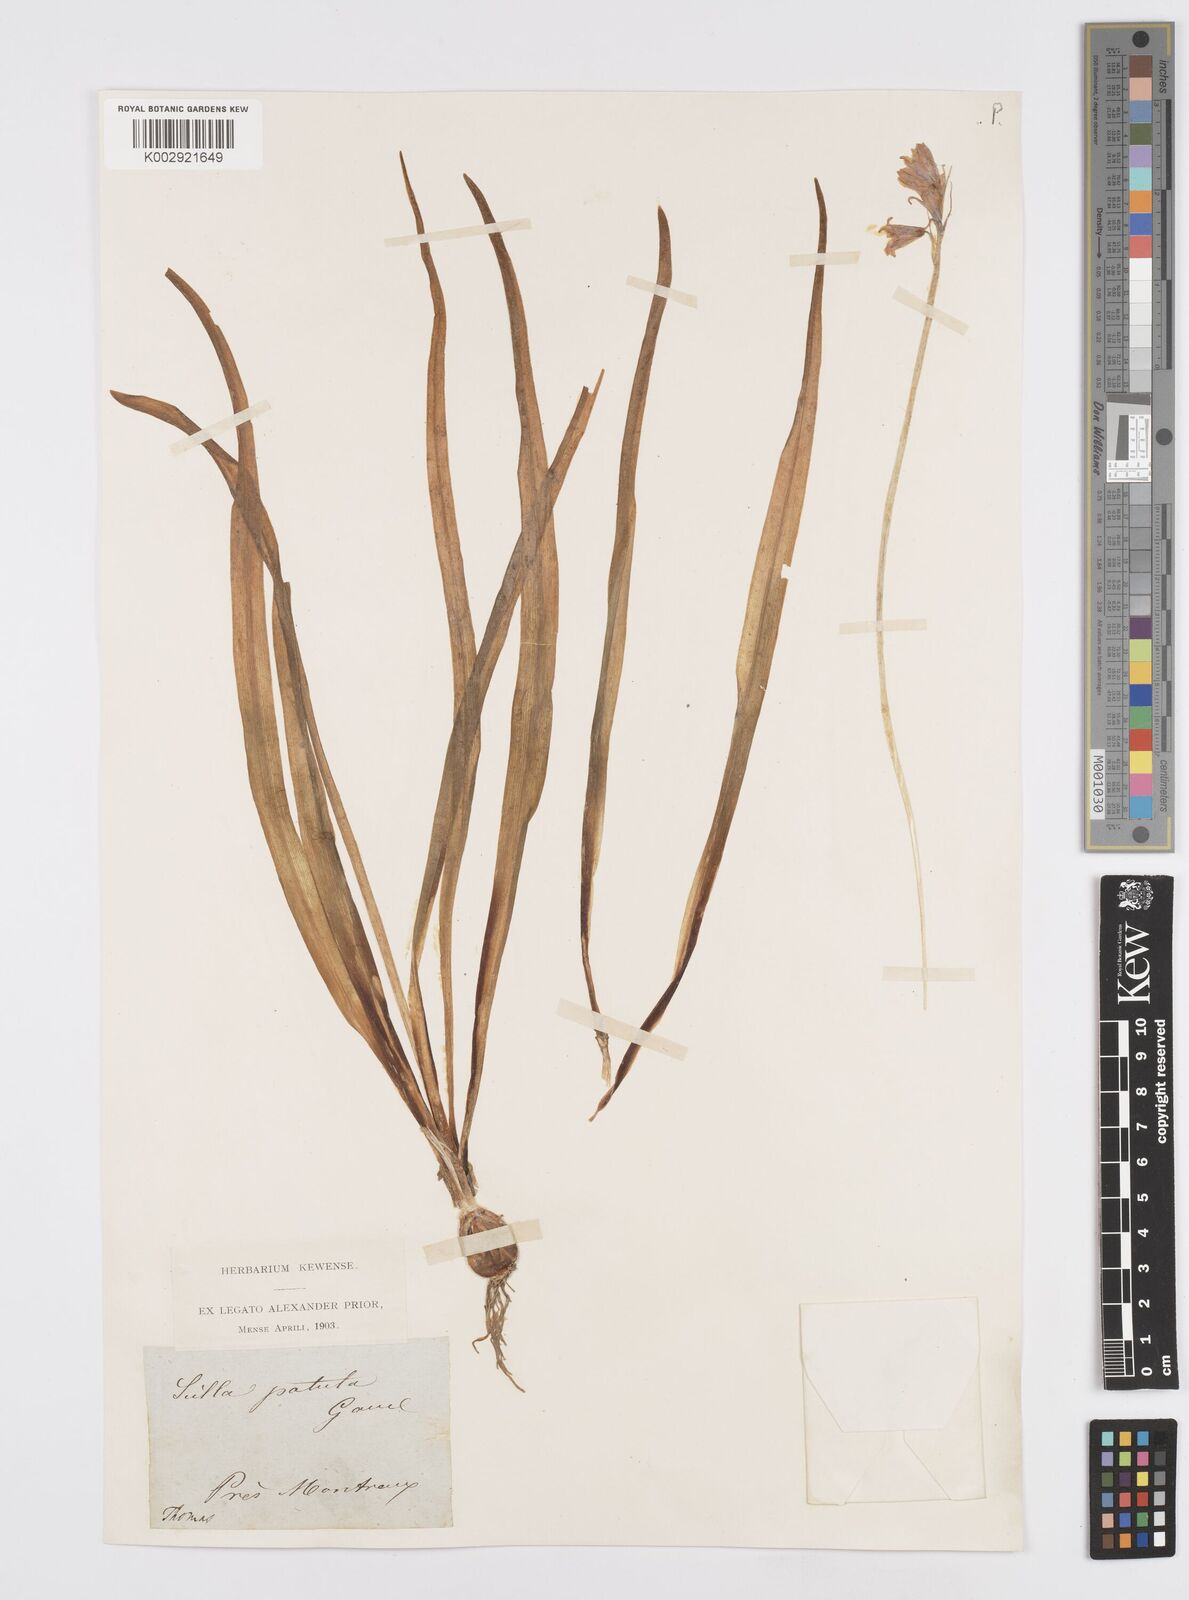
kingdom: Plantae
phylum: Tracheophyta
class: Liliopsida
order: Asparagales
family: Asparagaceae
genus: Hyacinthoides
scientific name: Hyacinthoides non-scripta
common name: Bluebell
